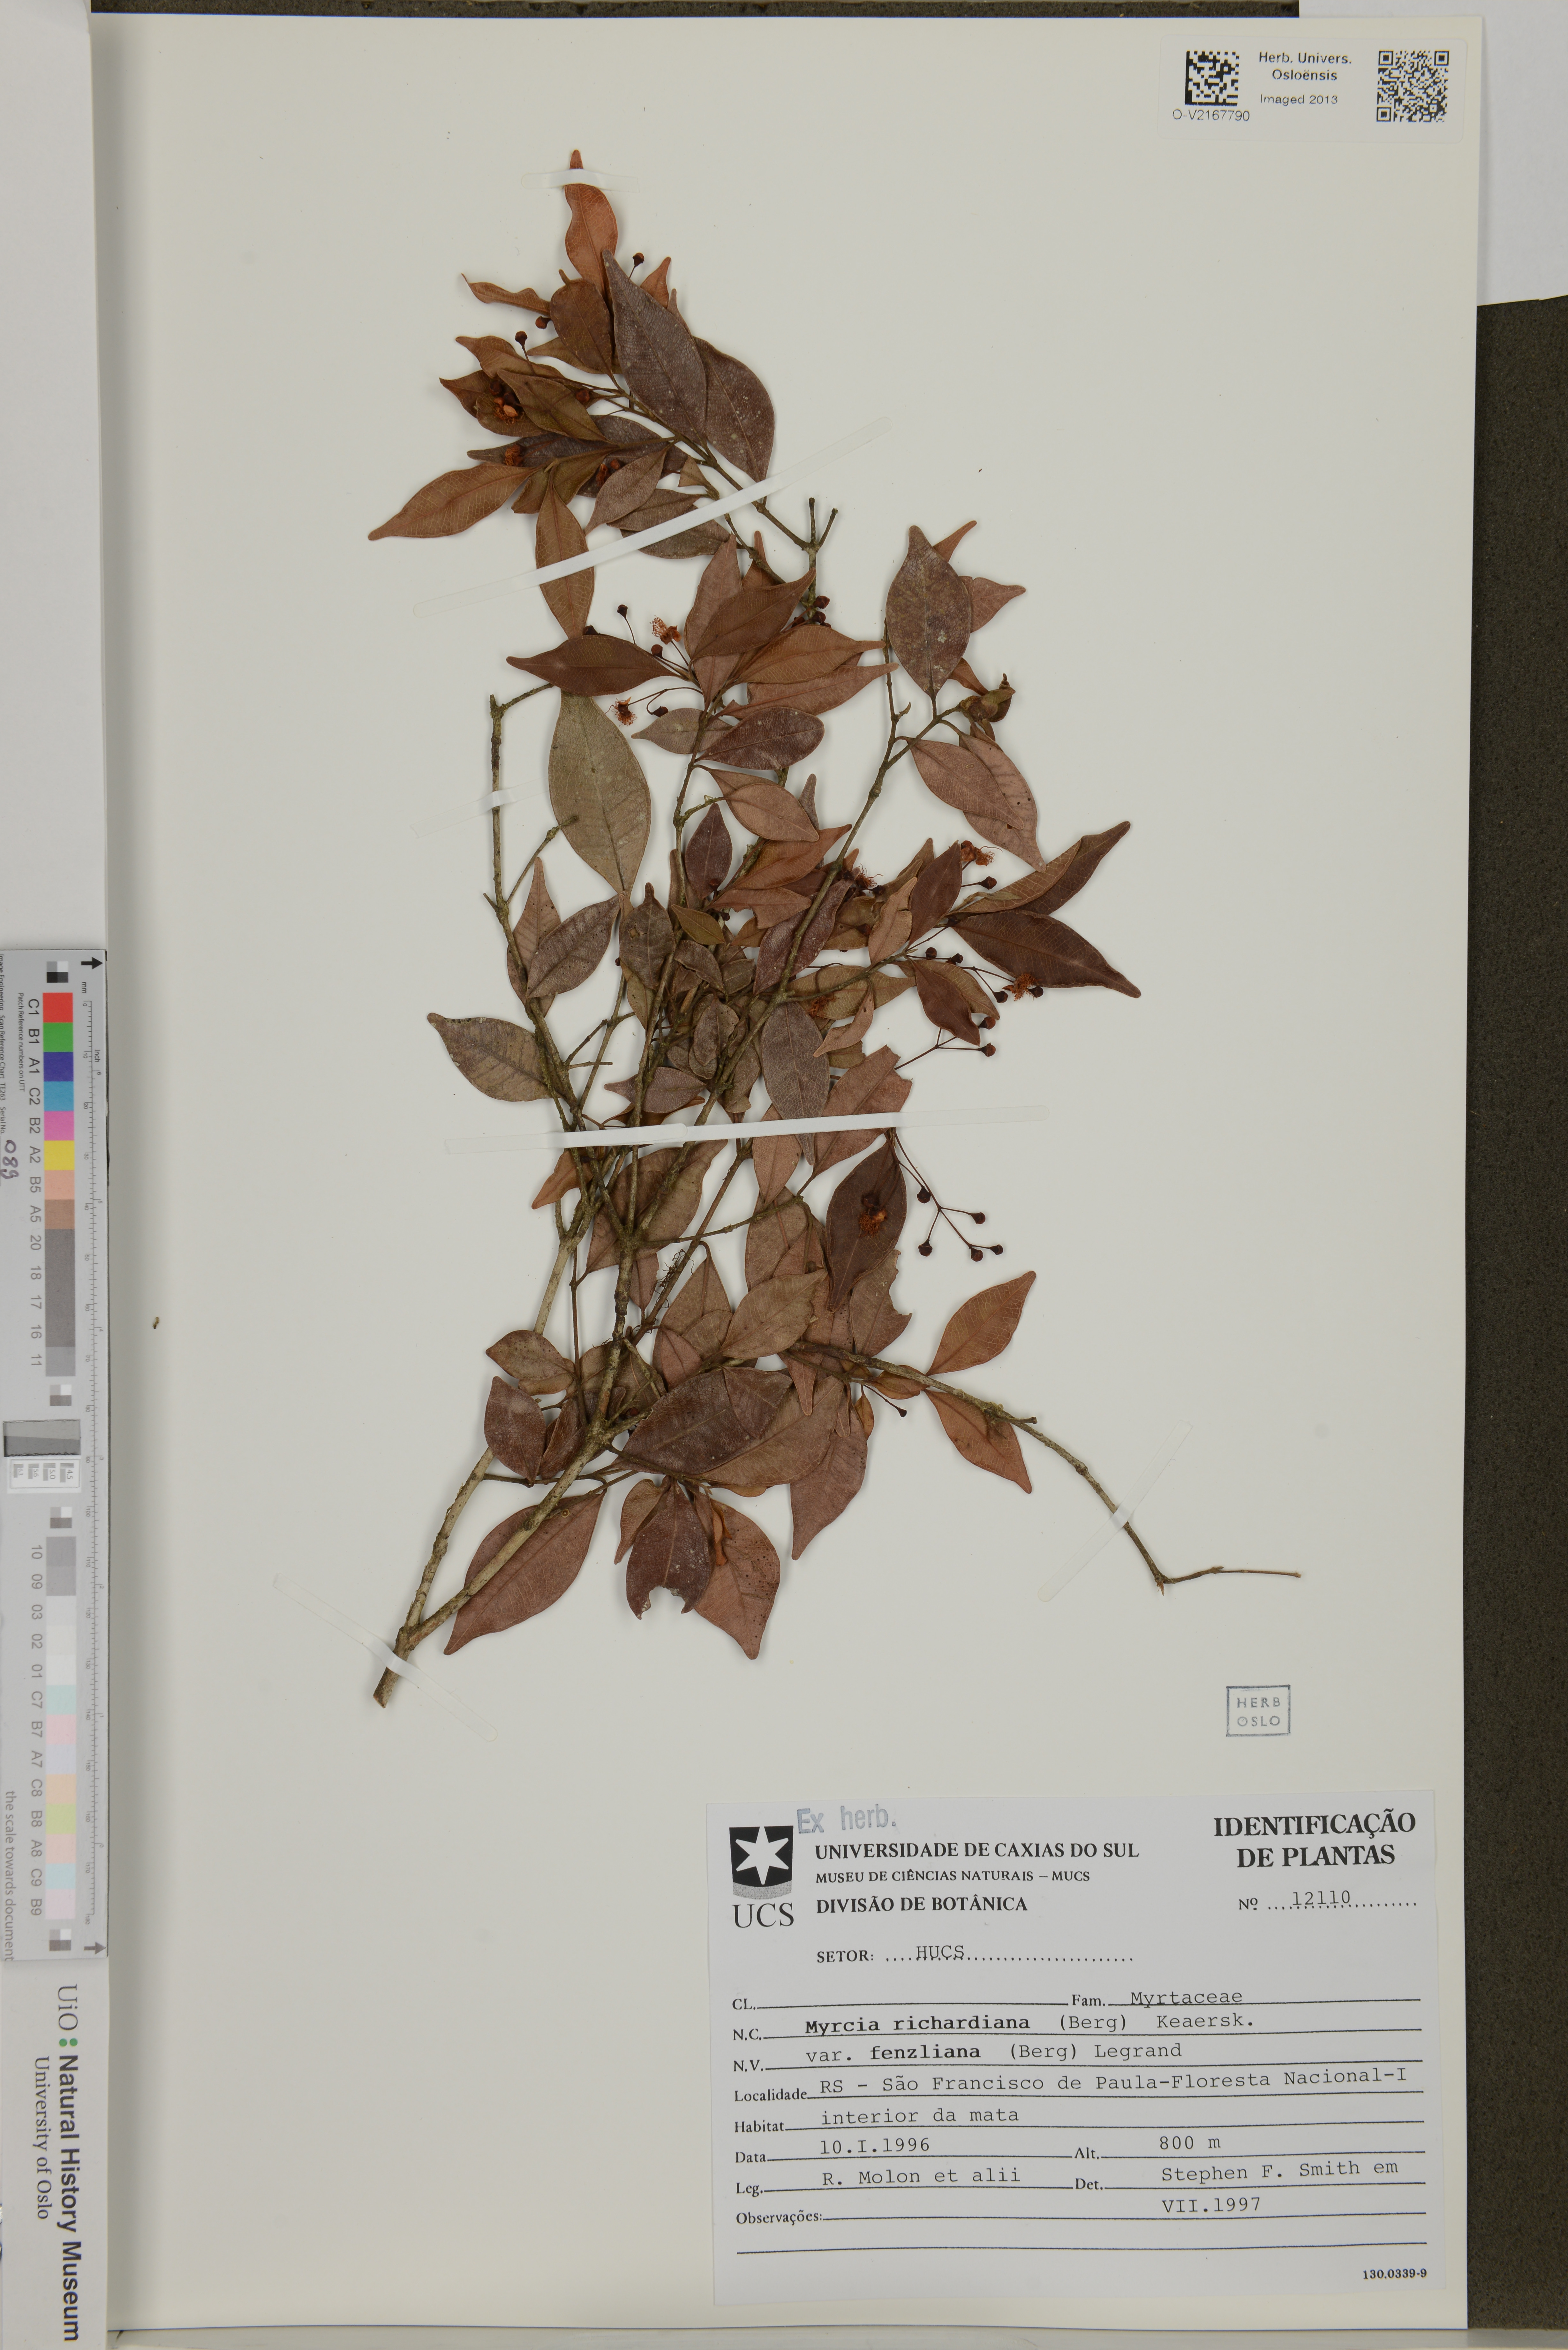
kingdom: Plantae
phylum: Tracheophyta
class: Magnoliopsida
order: Myrtales
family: Myrtaceae
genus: Myrcia
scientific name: Myrcia richardiana
